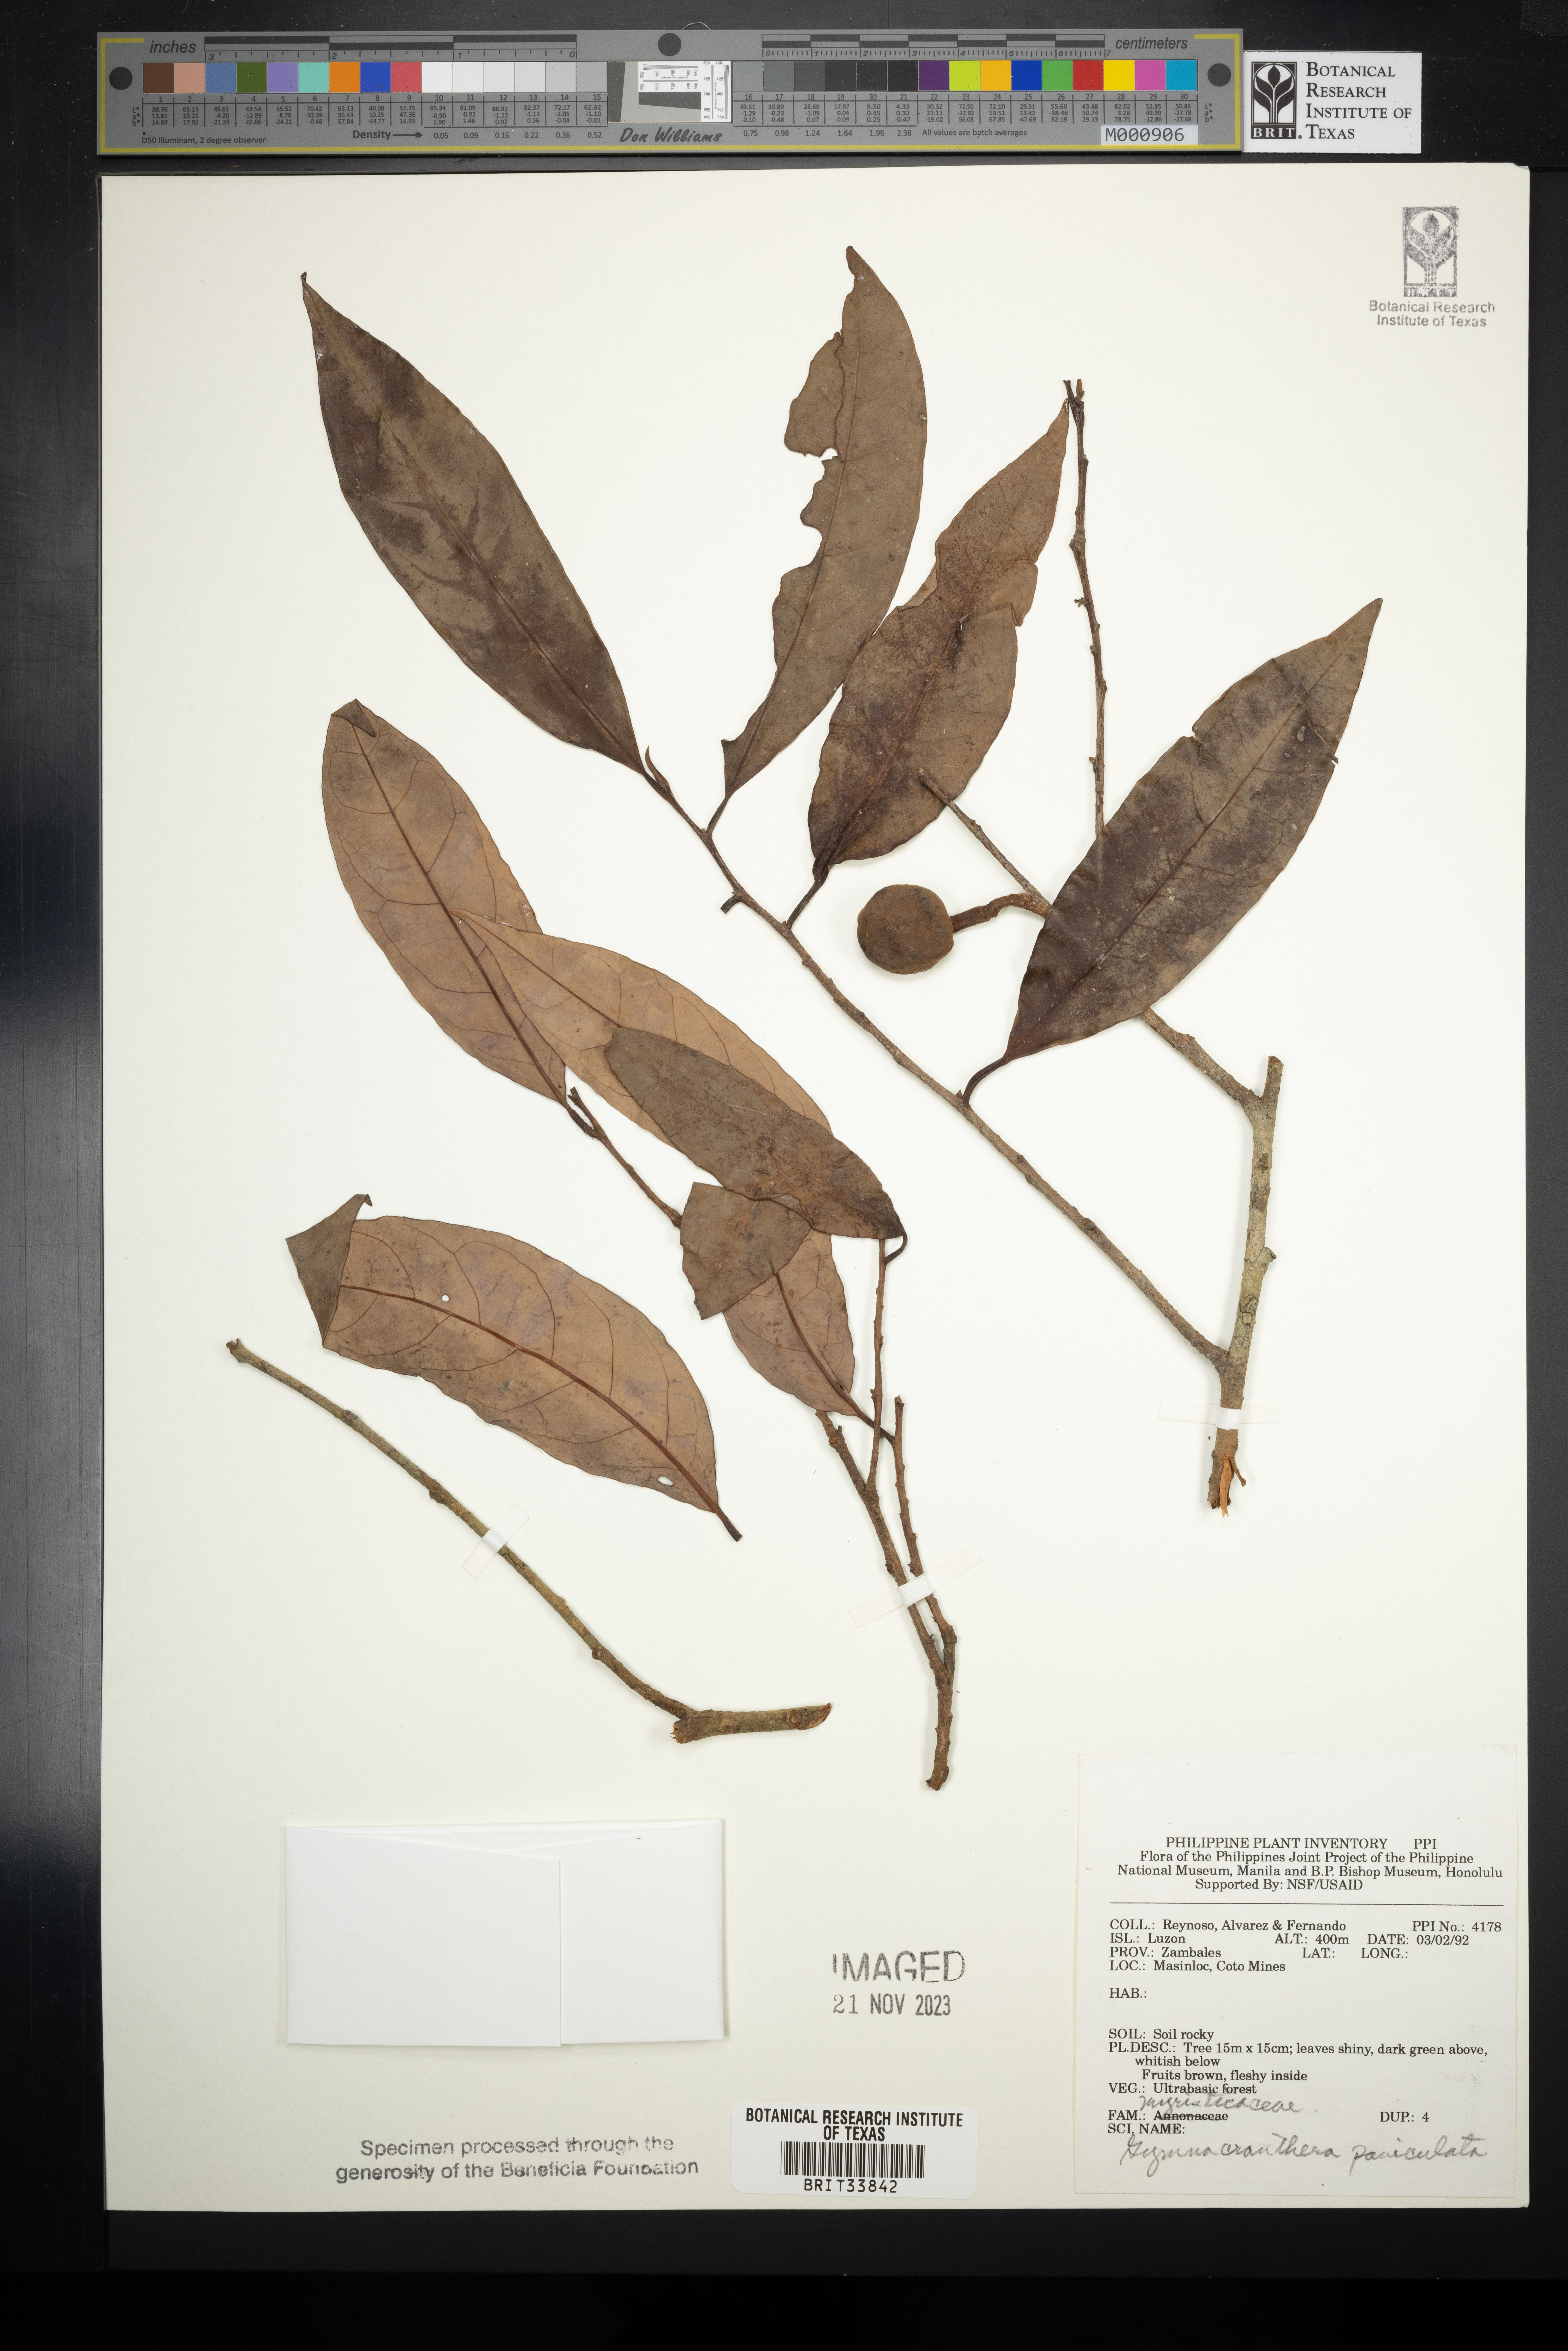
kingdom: Plantae
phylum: Tracheophyta
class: Magnoliopsida
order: Magnoliales
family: Myristicaceae
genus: Gymnacranthera
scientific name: Gymnacranthera farquhariana
